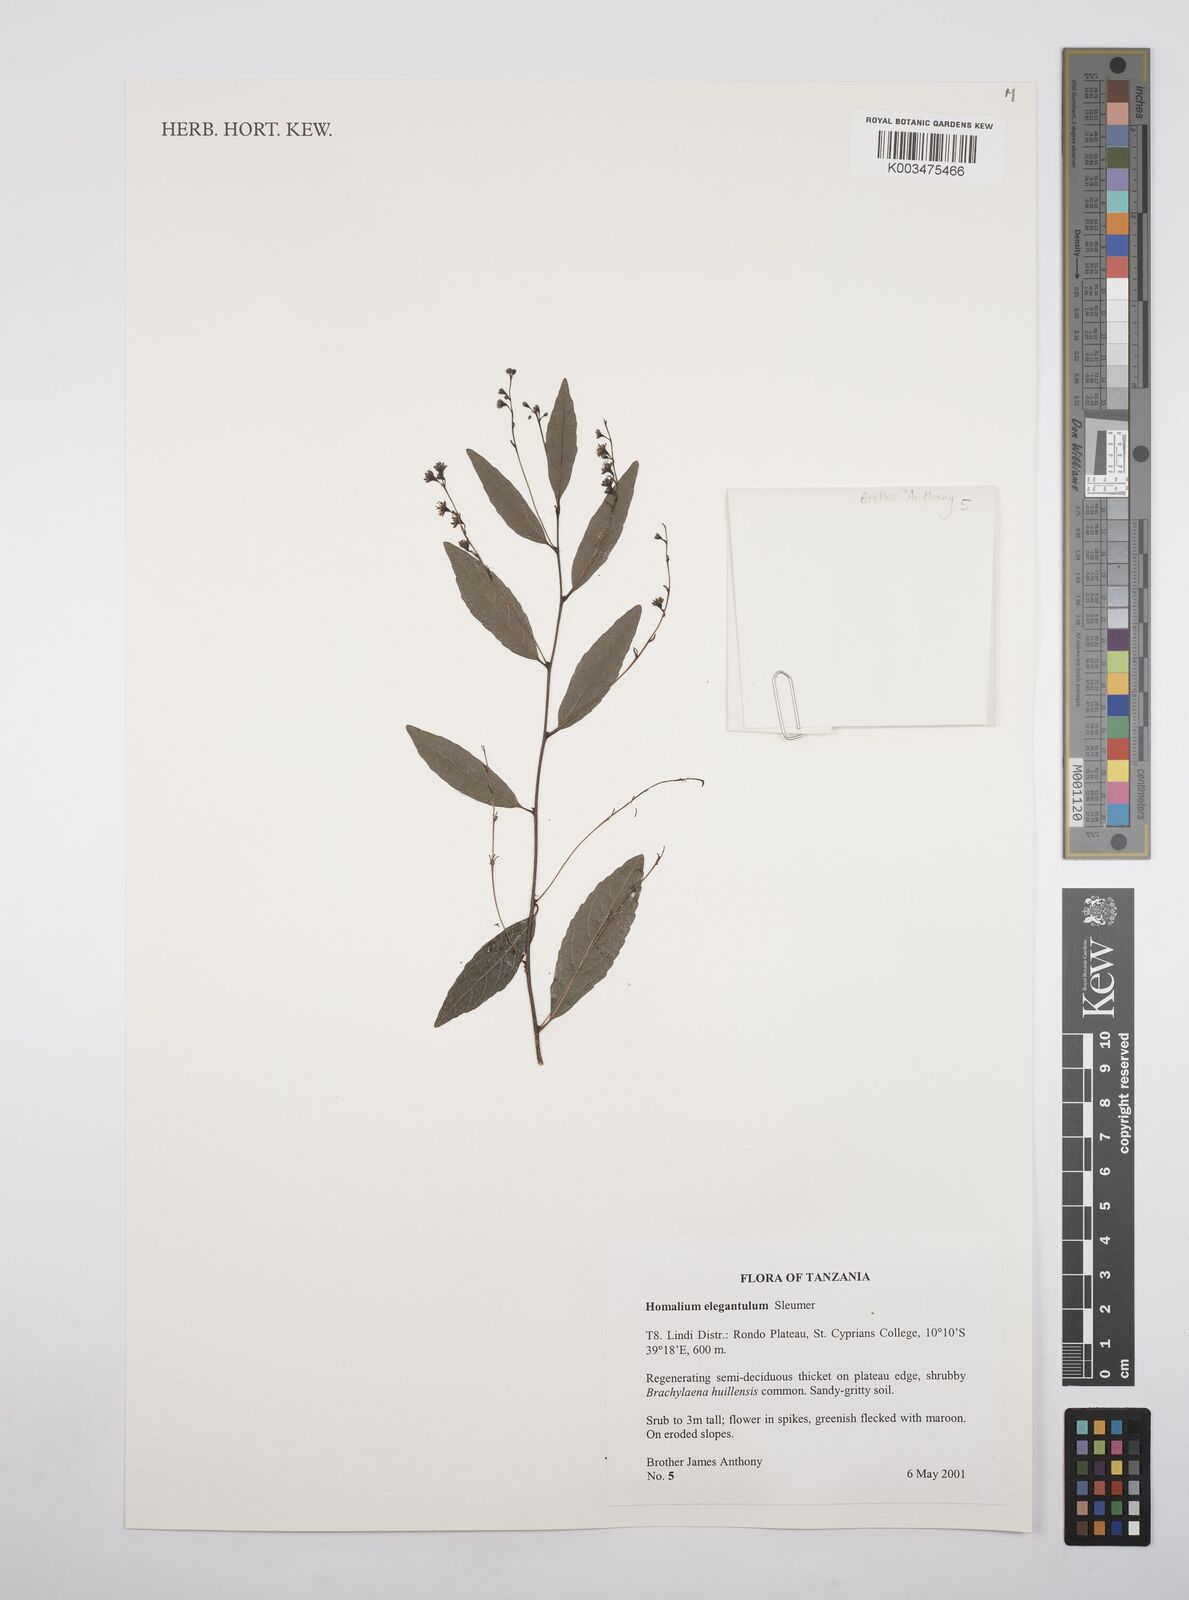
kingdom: Plantae
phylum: Tracheophyta
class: Magnoliopsida
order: Malpighiales
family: Salicaceae
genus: Homalium
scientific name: Homalium elegantulum
